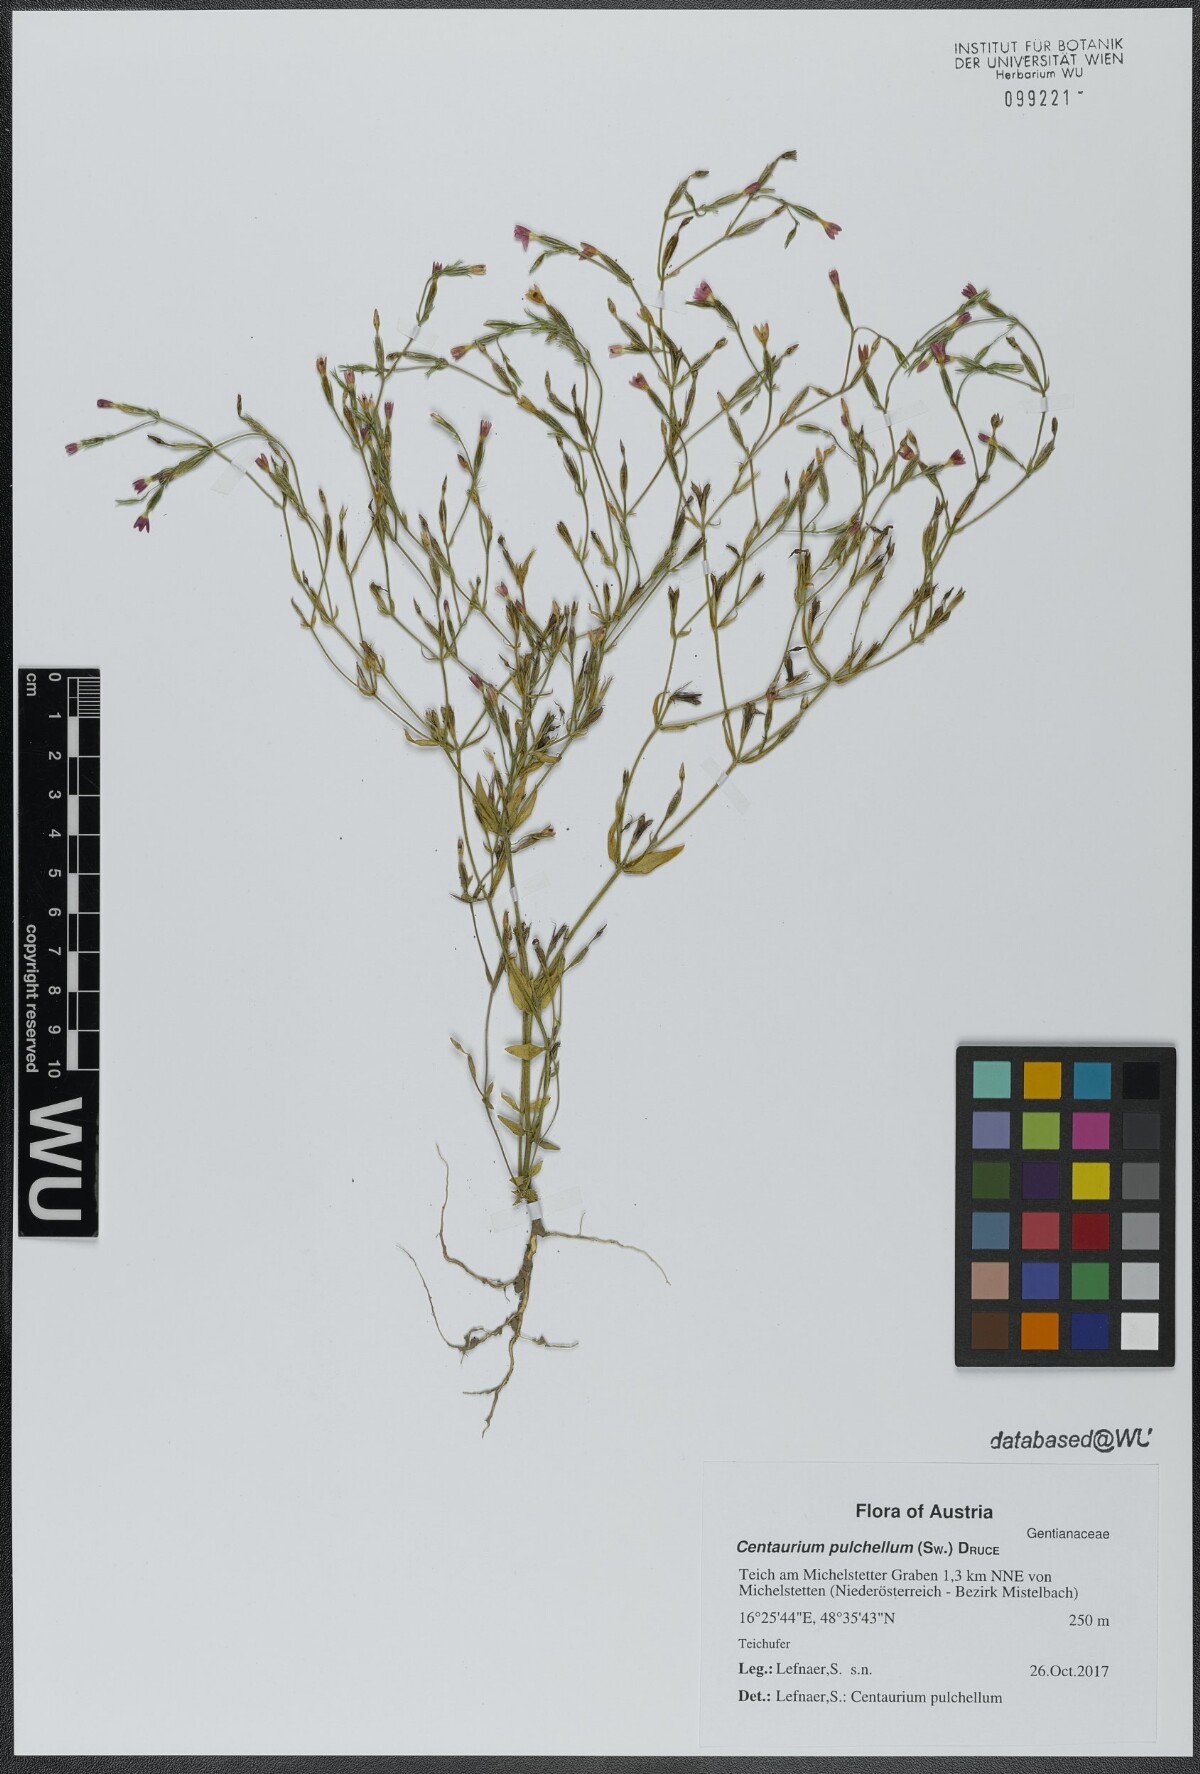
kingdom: Plantae
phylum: Tracheophyta
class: Magnoliopsida
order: Gentianales
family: Gentianaceae
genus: Centaurium
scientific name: Centaurium pulchellum
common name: Lesser centaury
